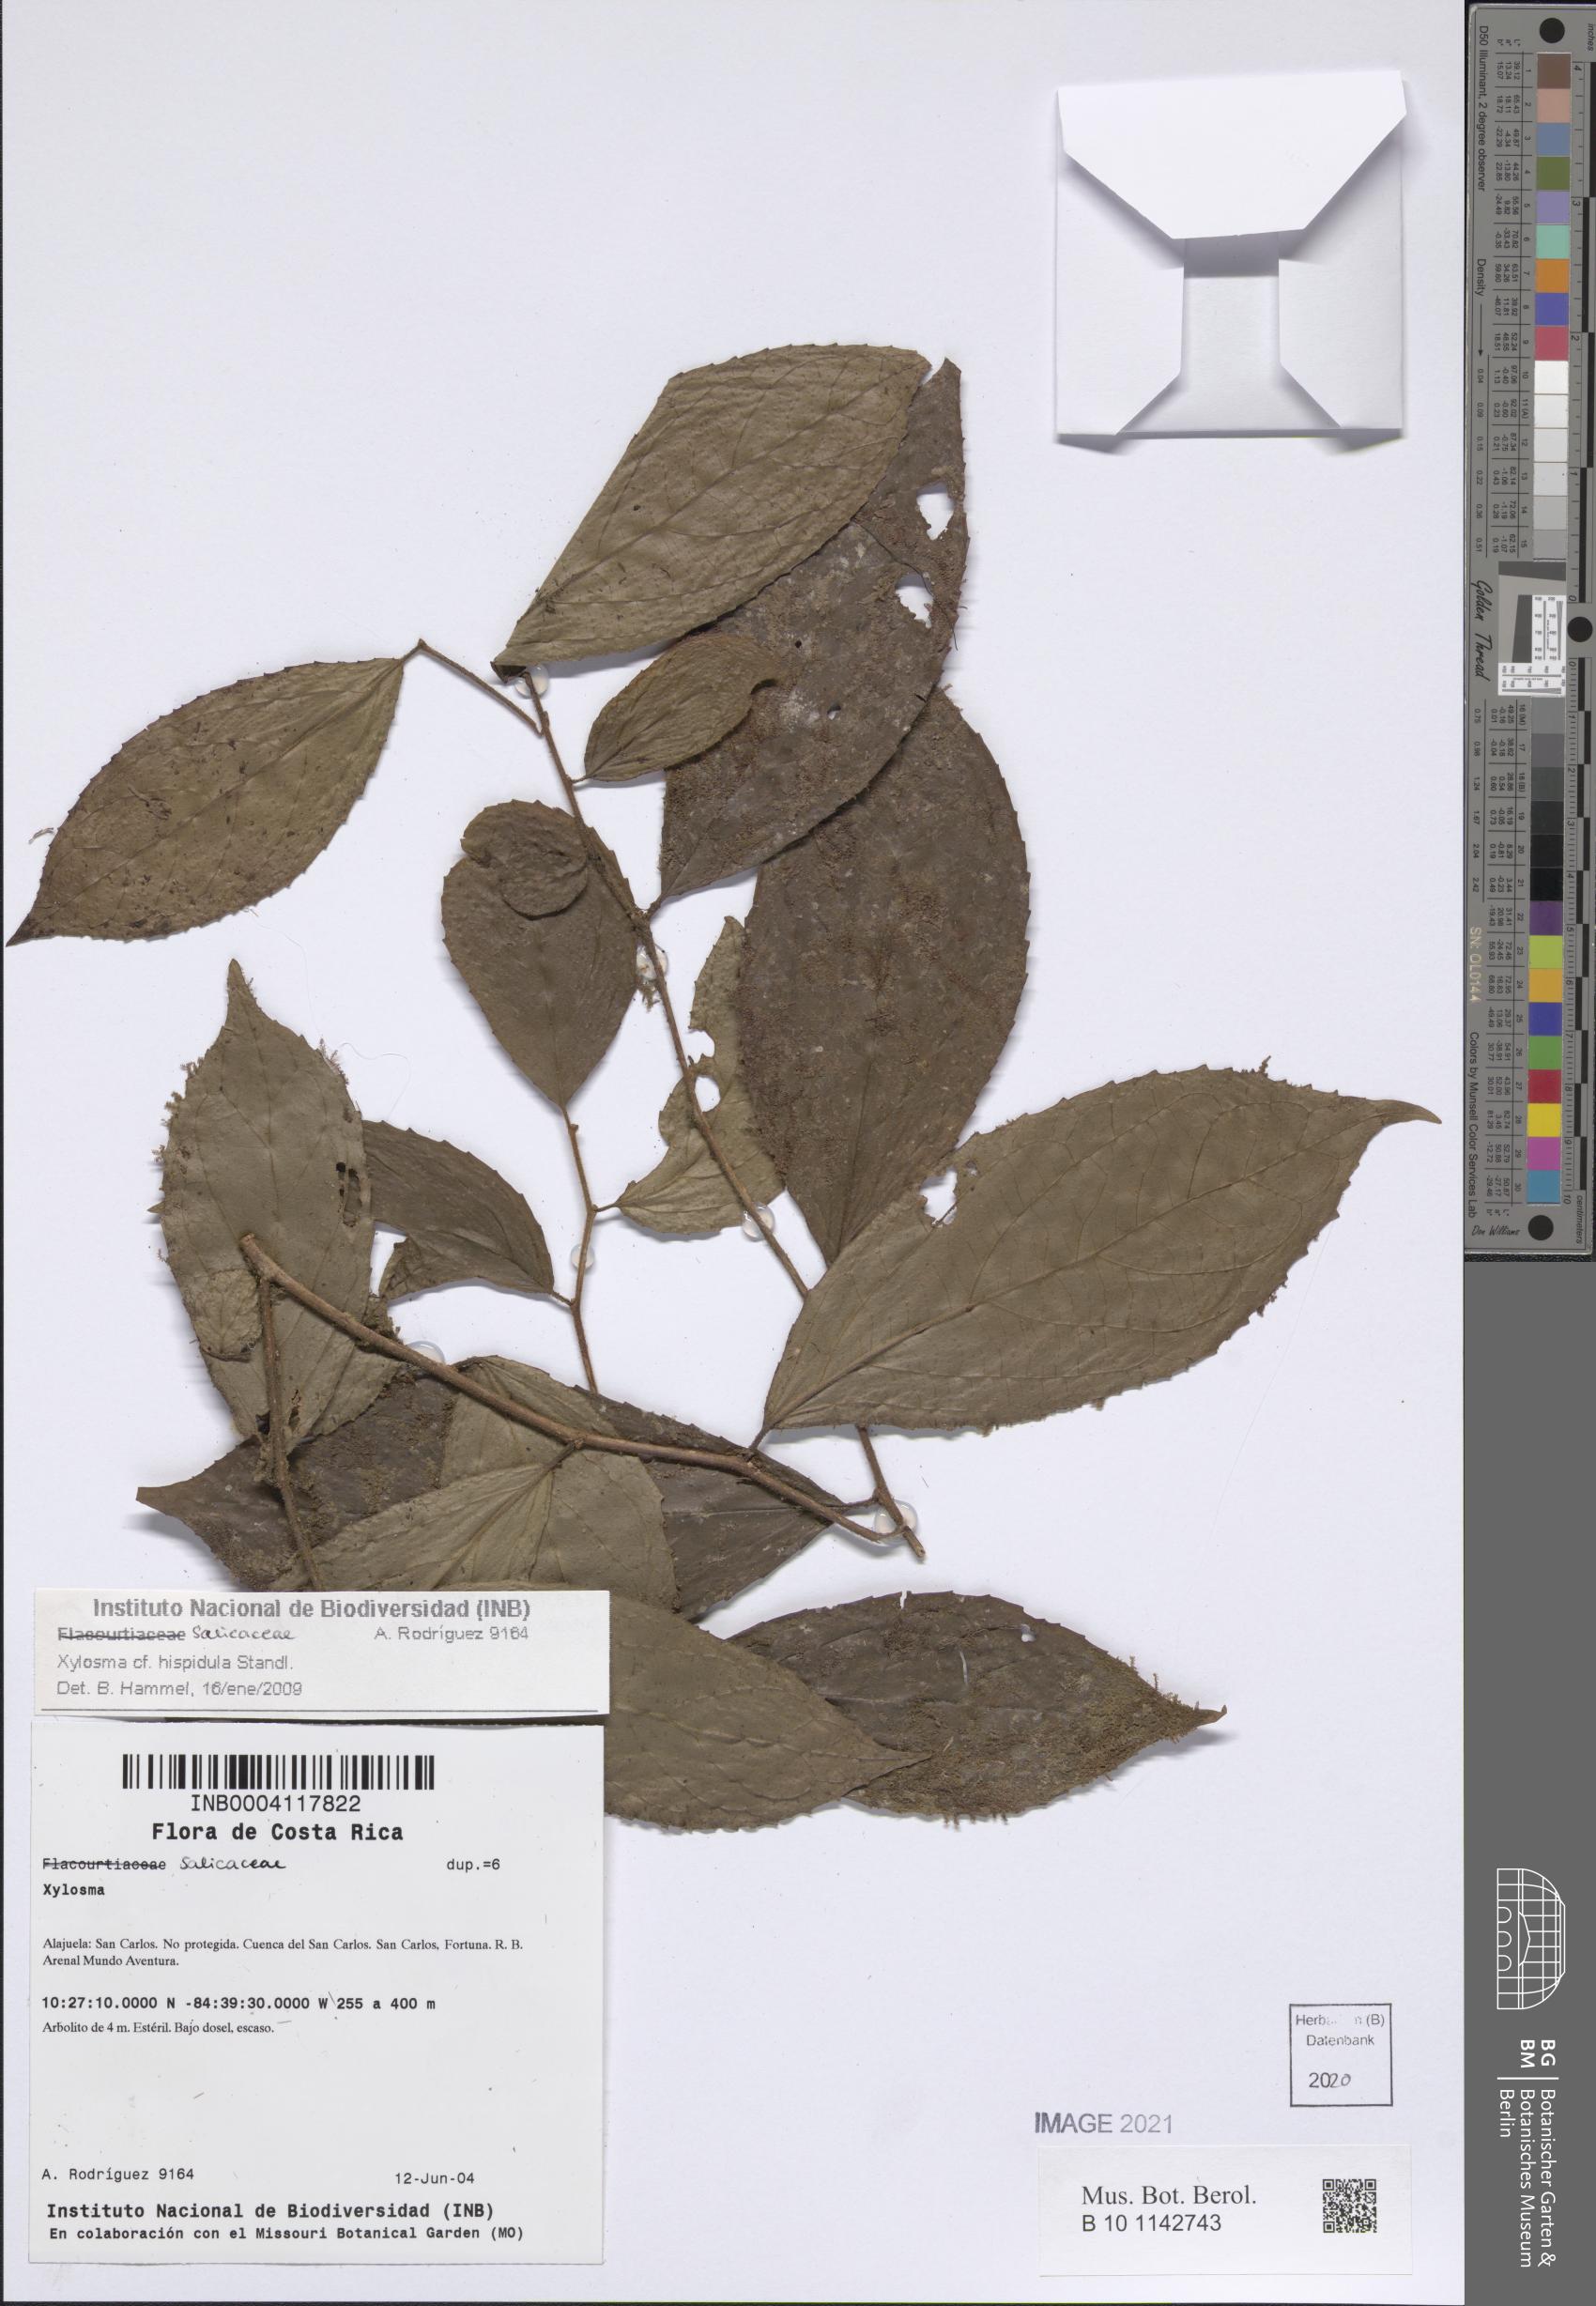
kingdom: Plantae
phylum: Tracheophyta
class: Magnoliopsida
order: Malpighiales
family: Salicaceae
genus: Xylosma
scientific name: Xylosma hispidula
